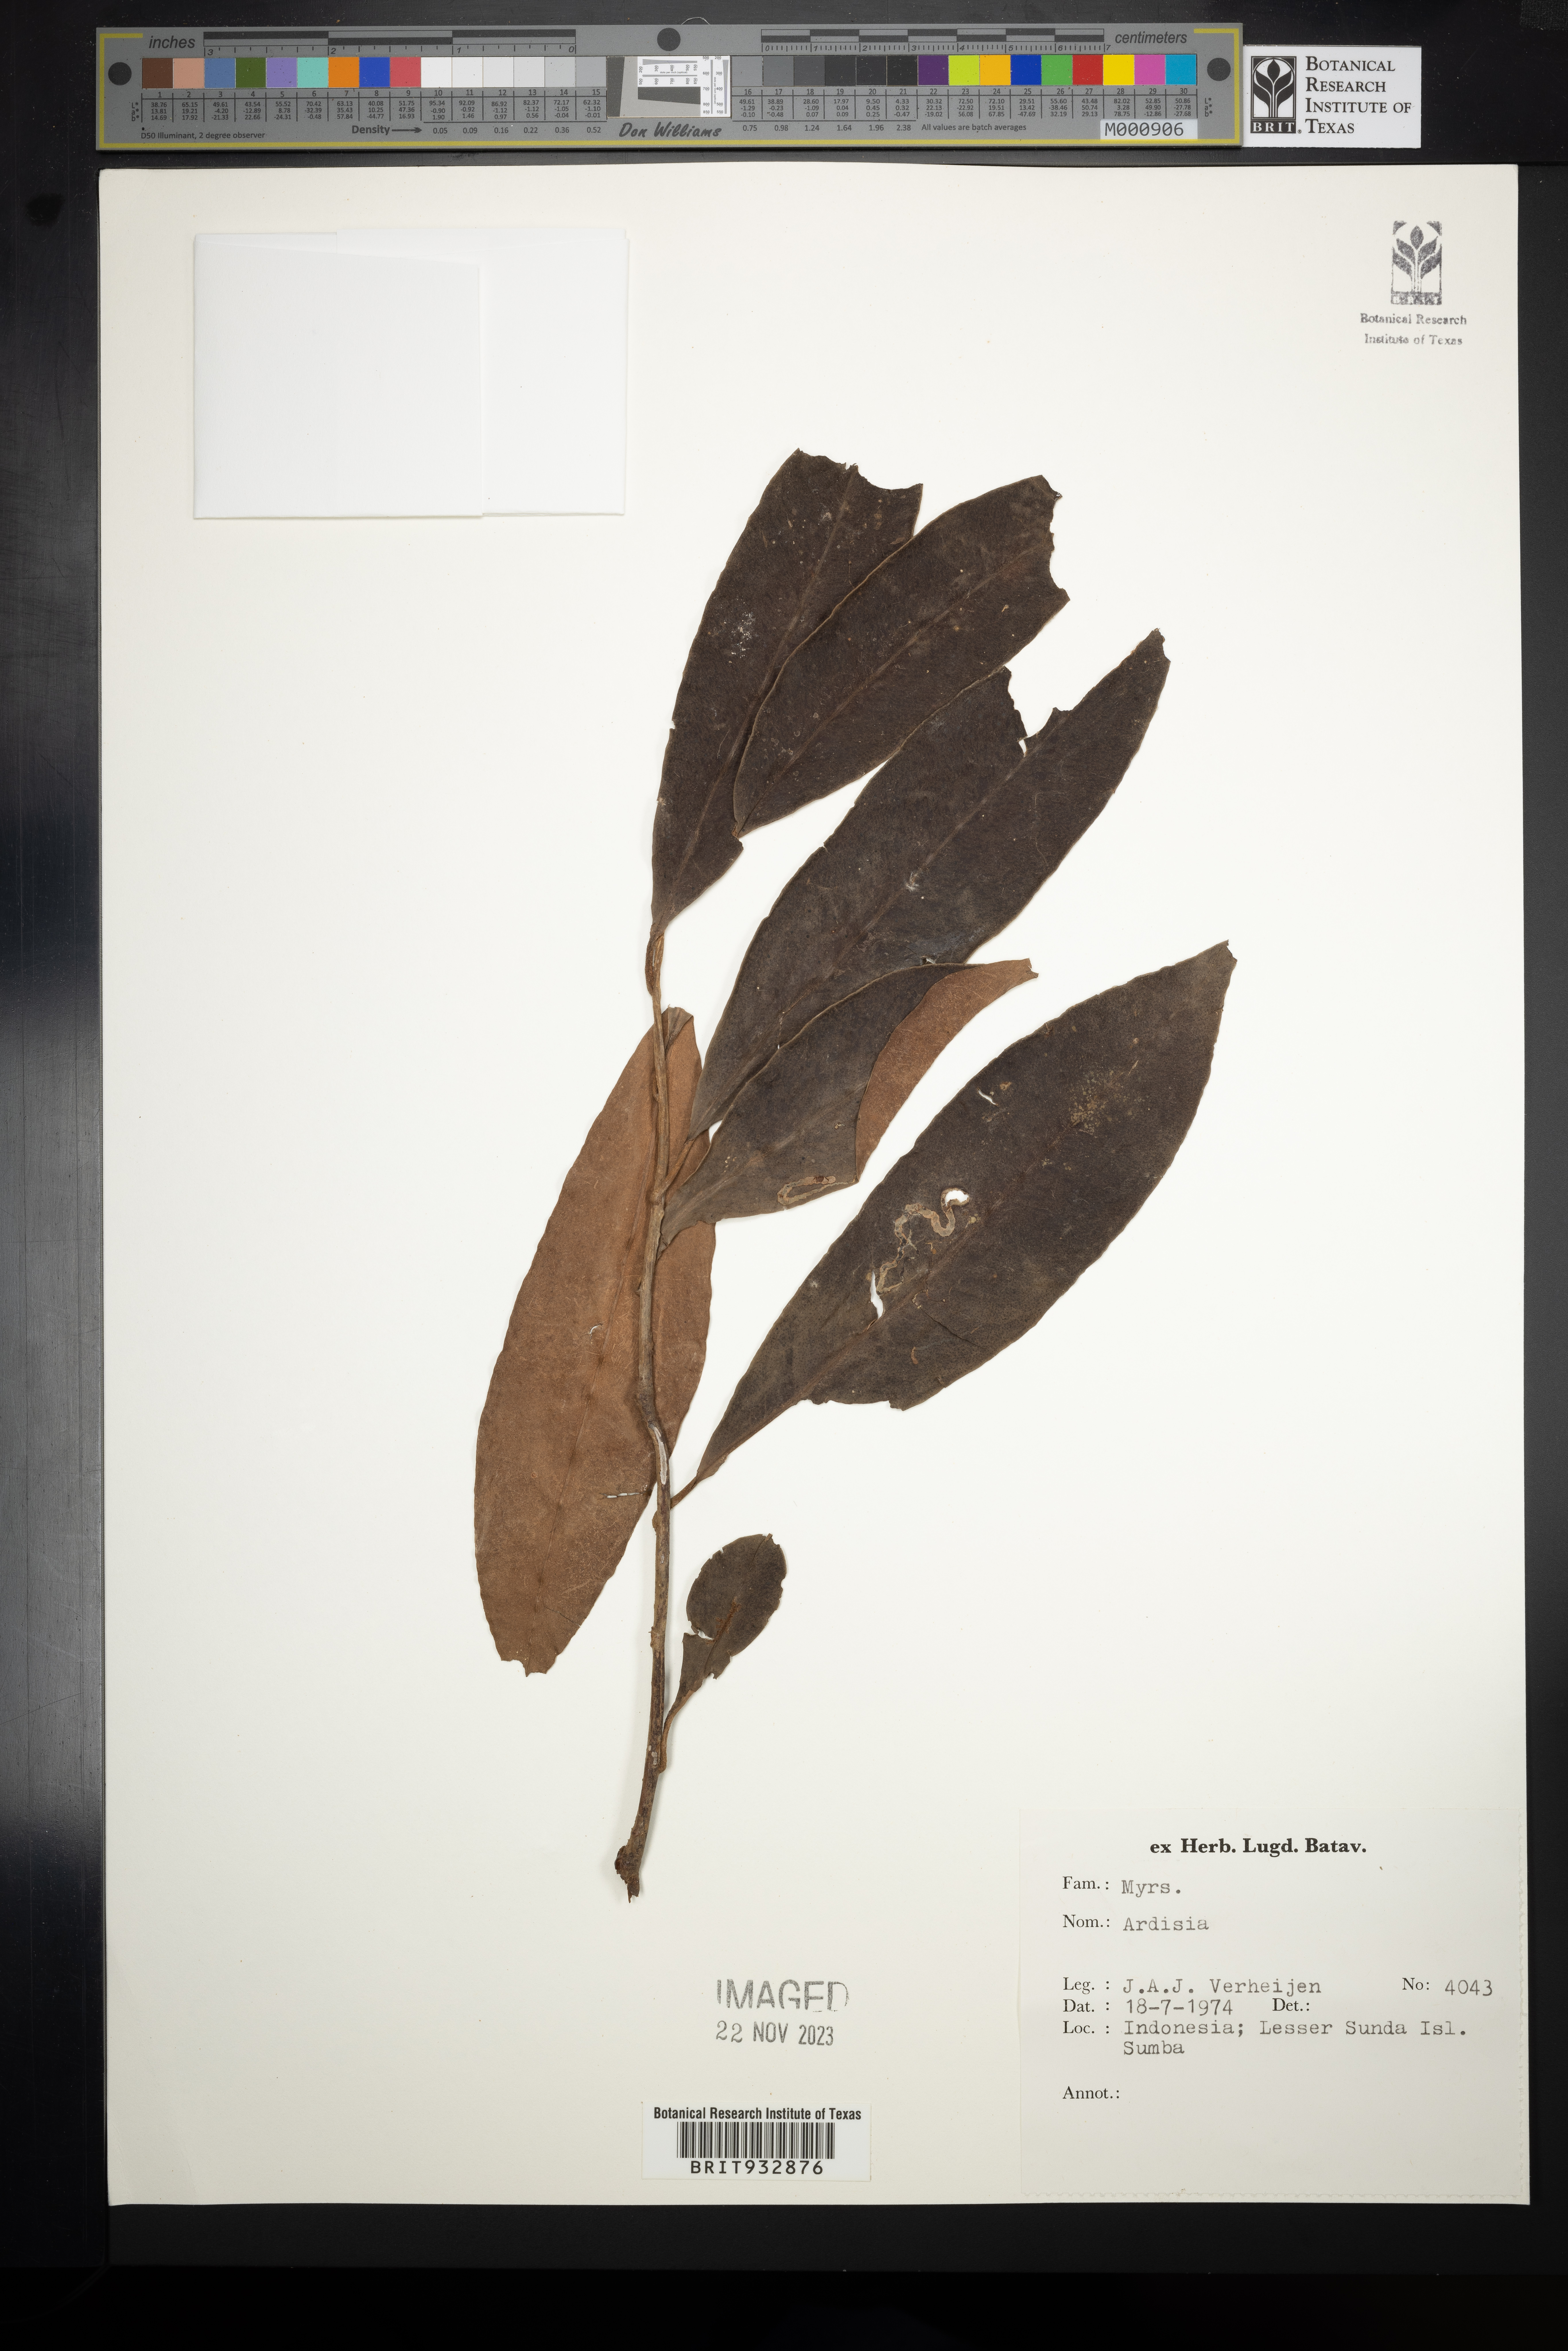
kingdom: Plantae
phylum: Tracheophyta
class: Magnoliopsida
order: Ericales
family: Primulaceae
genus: Ardisia
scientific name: Ardisia
